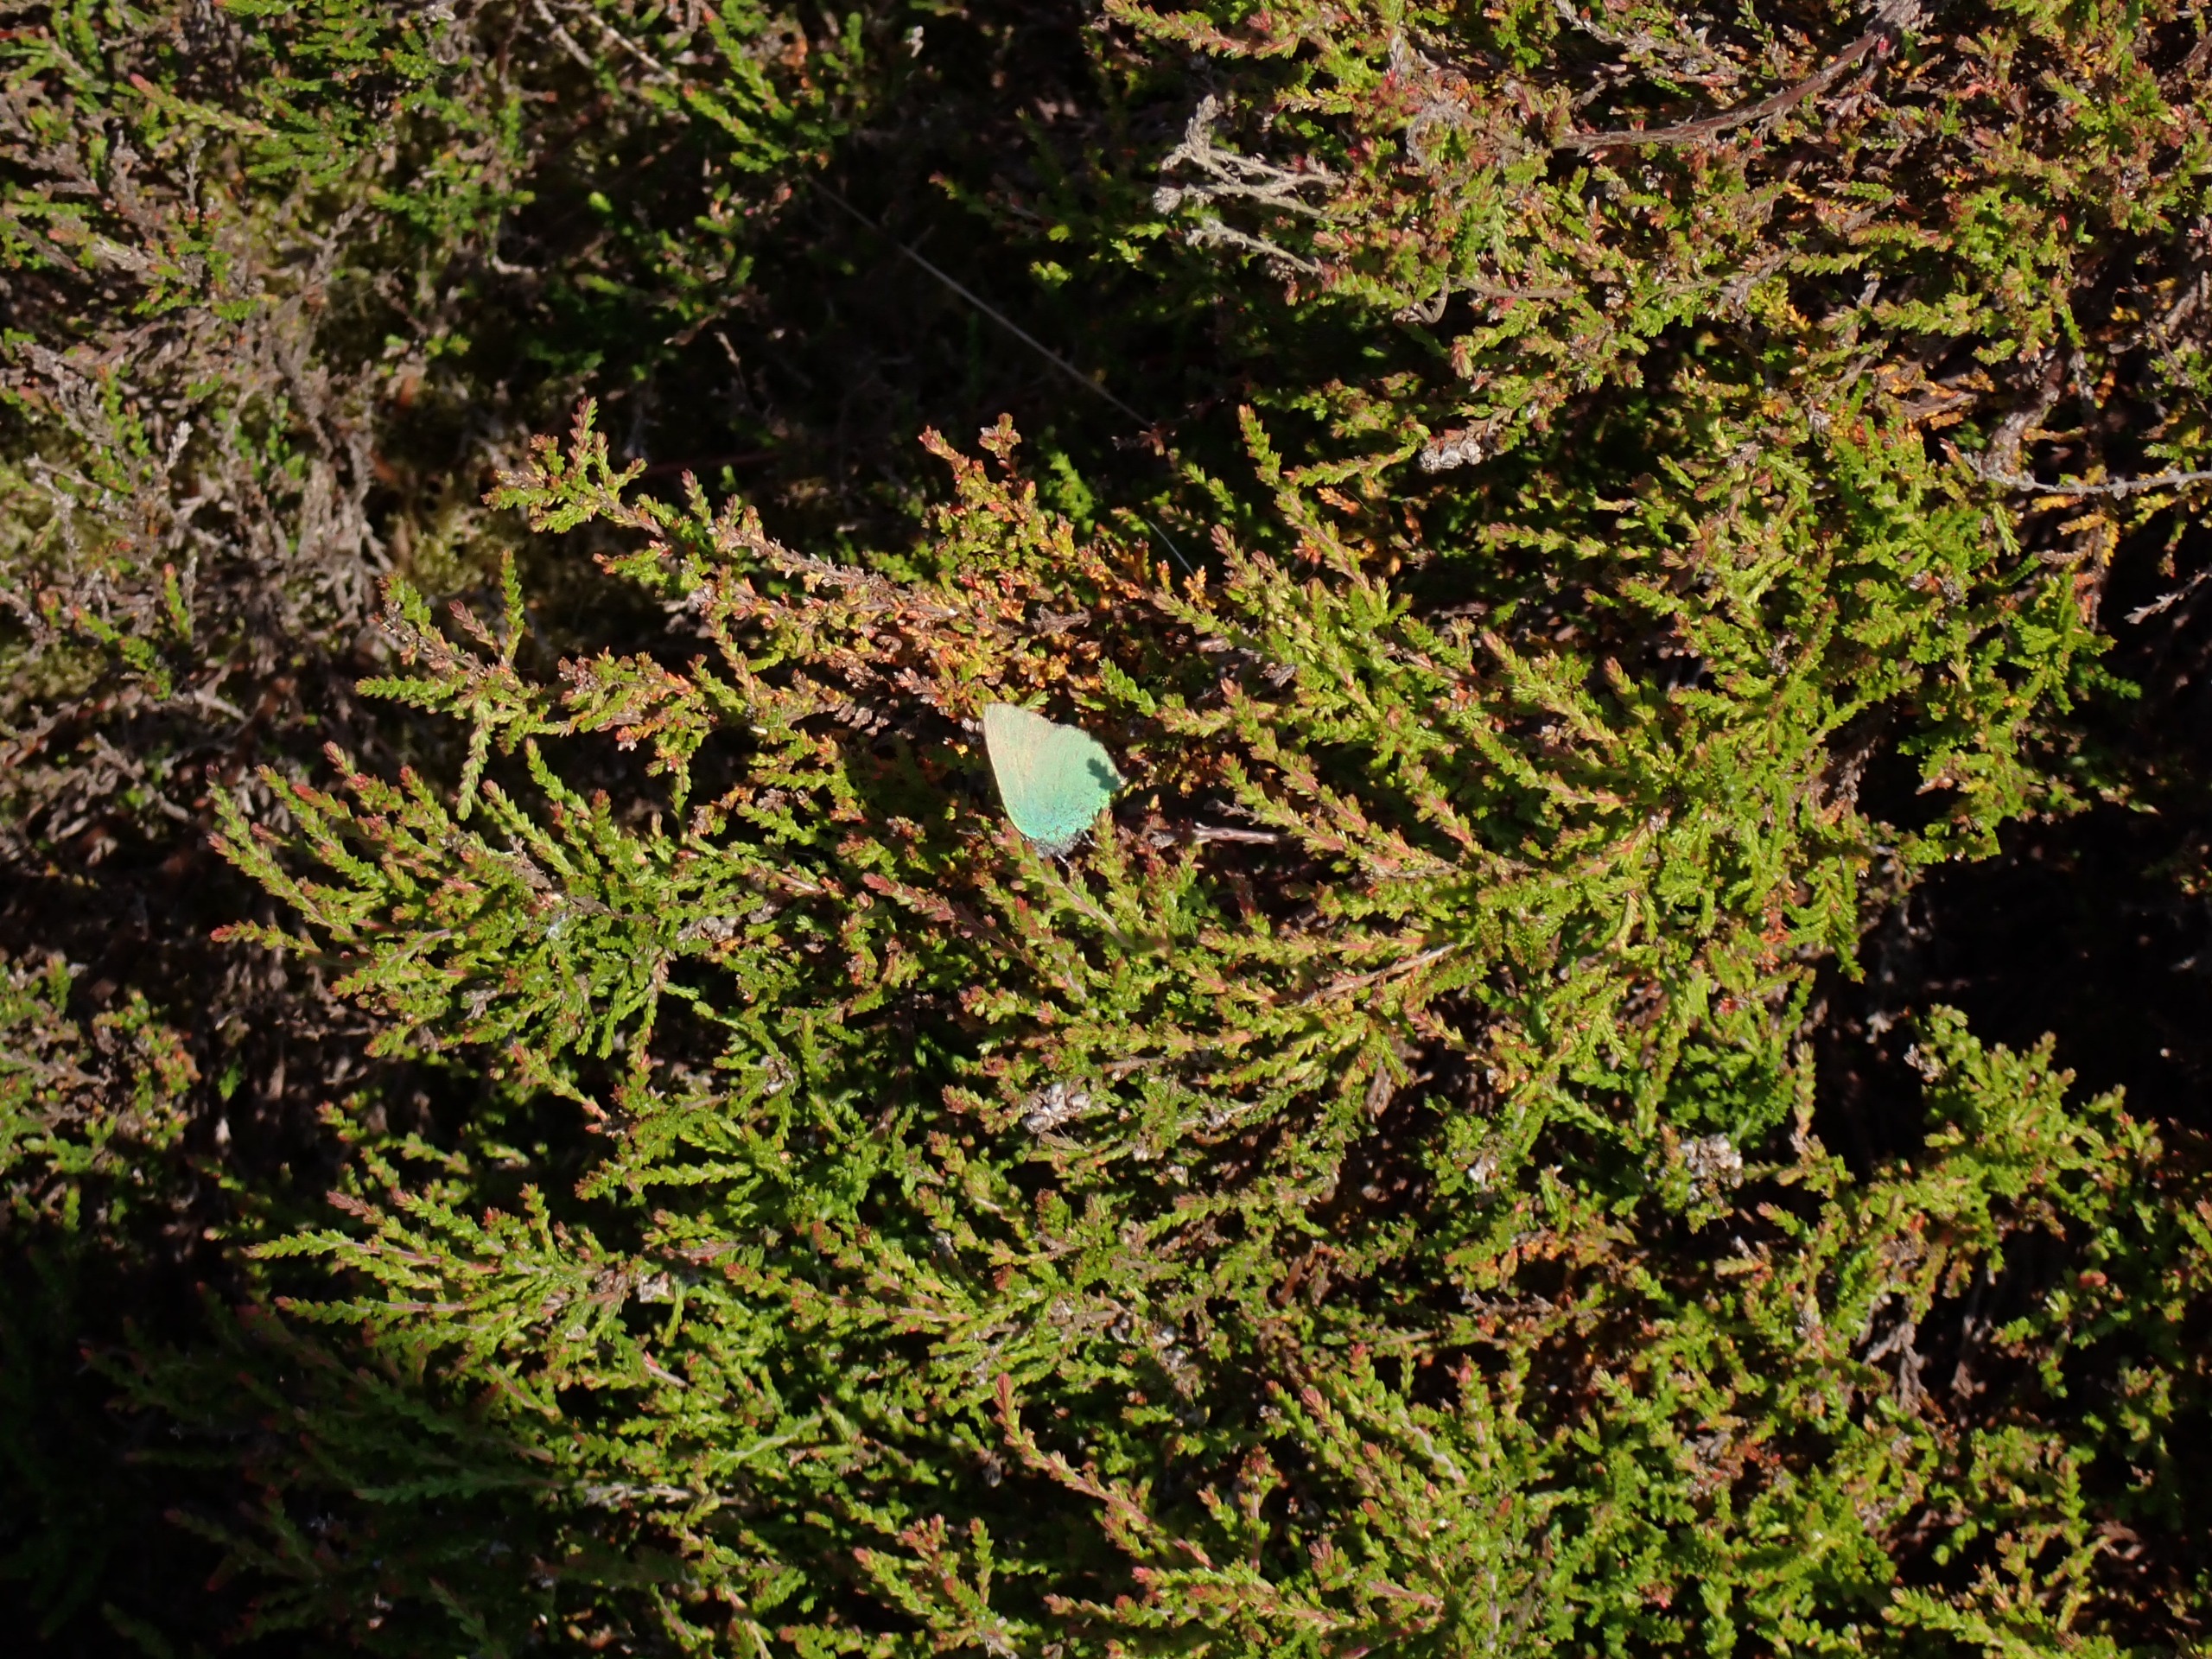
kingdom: Animalia
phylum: Arthropoda
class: Insecta
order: Lepidoptera
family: Lycaenidae
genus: Callophrys
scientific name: Callophrys rubi
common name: Grøn busksommerfugl
